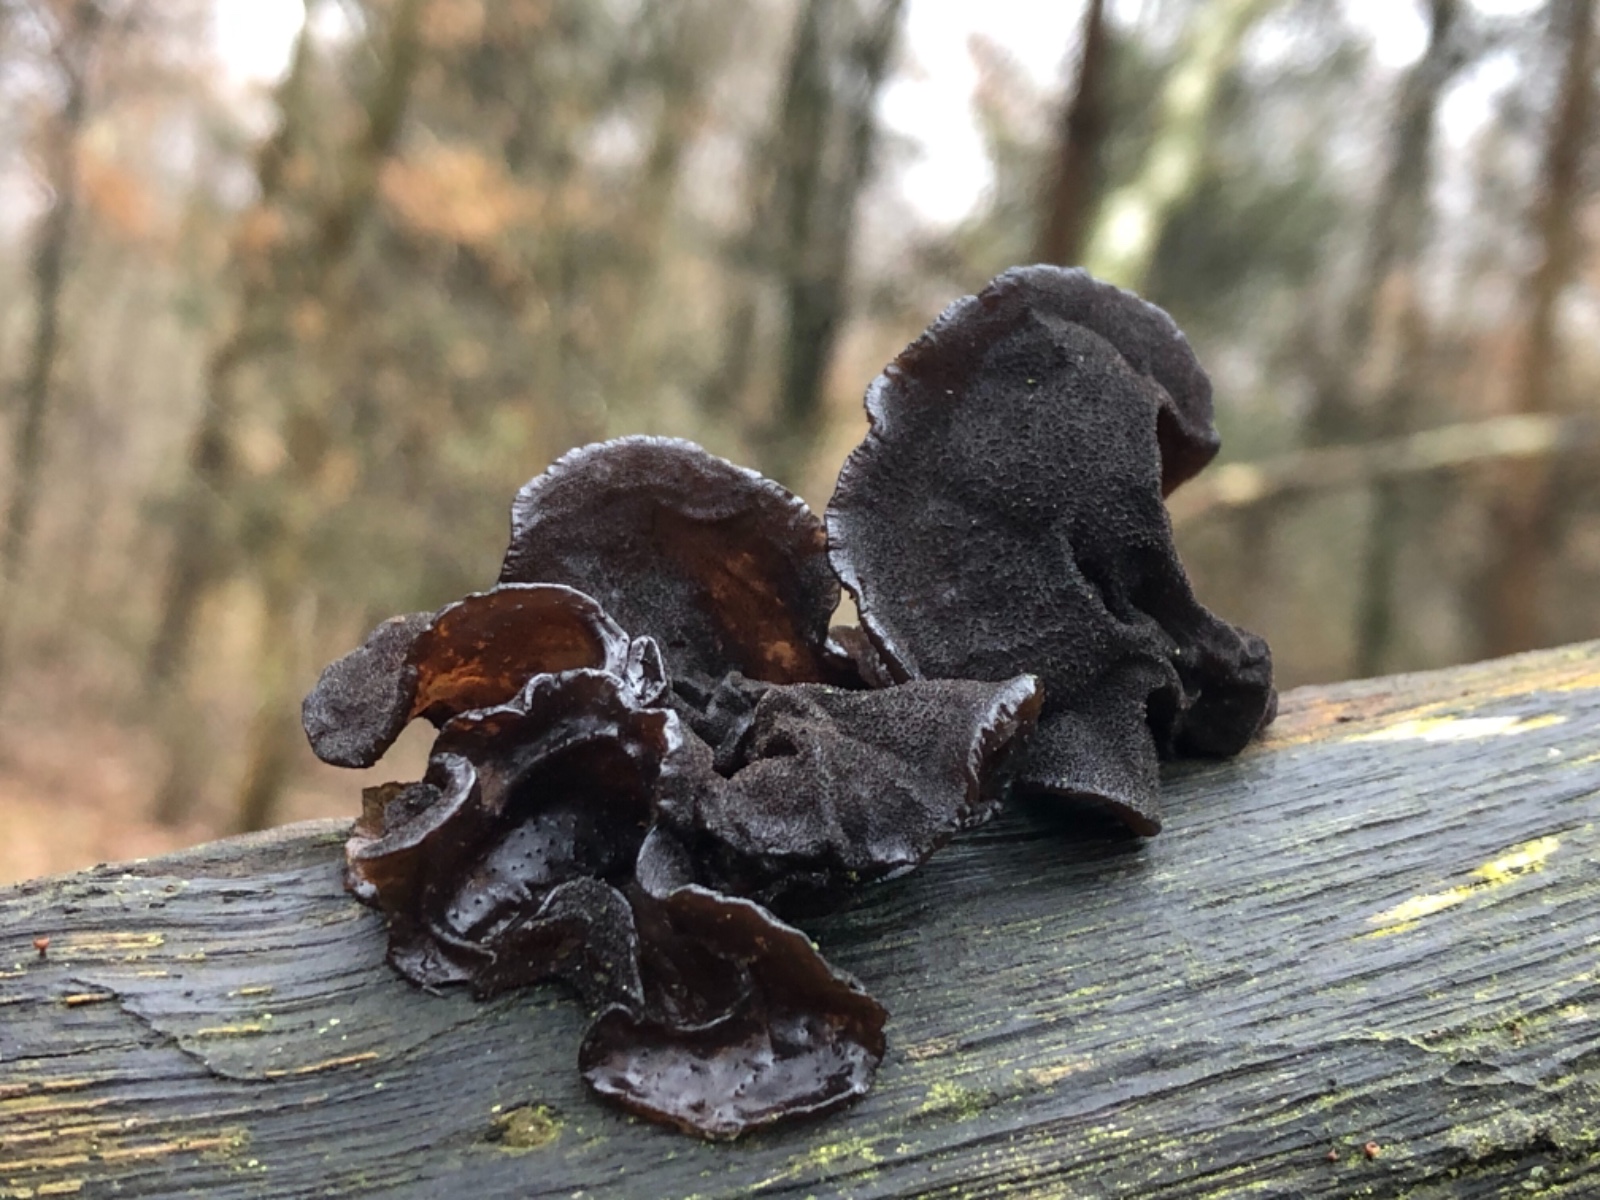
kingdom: Fungi
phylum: Basidiomycota
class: Agaricomycetes
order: Auriculariales
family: Auriculariaceae
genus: Exidia
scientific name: Exidia glandulosa
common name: ege-bævretop
